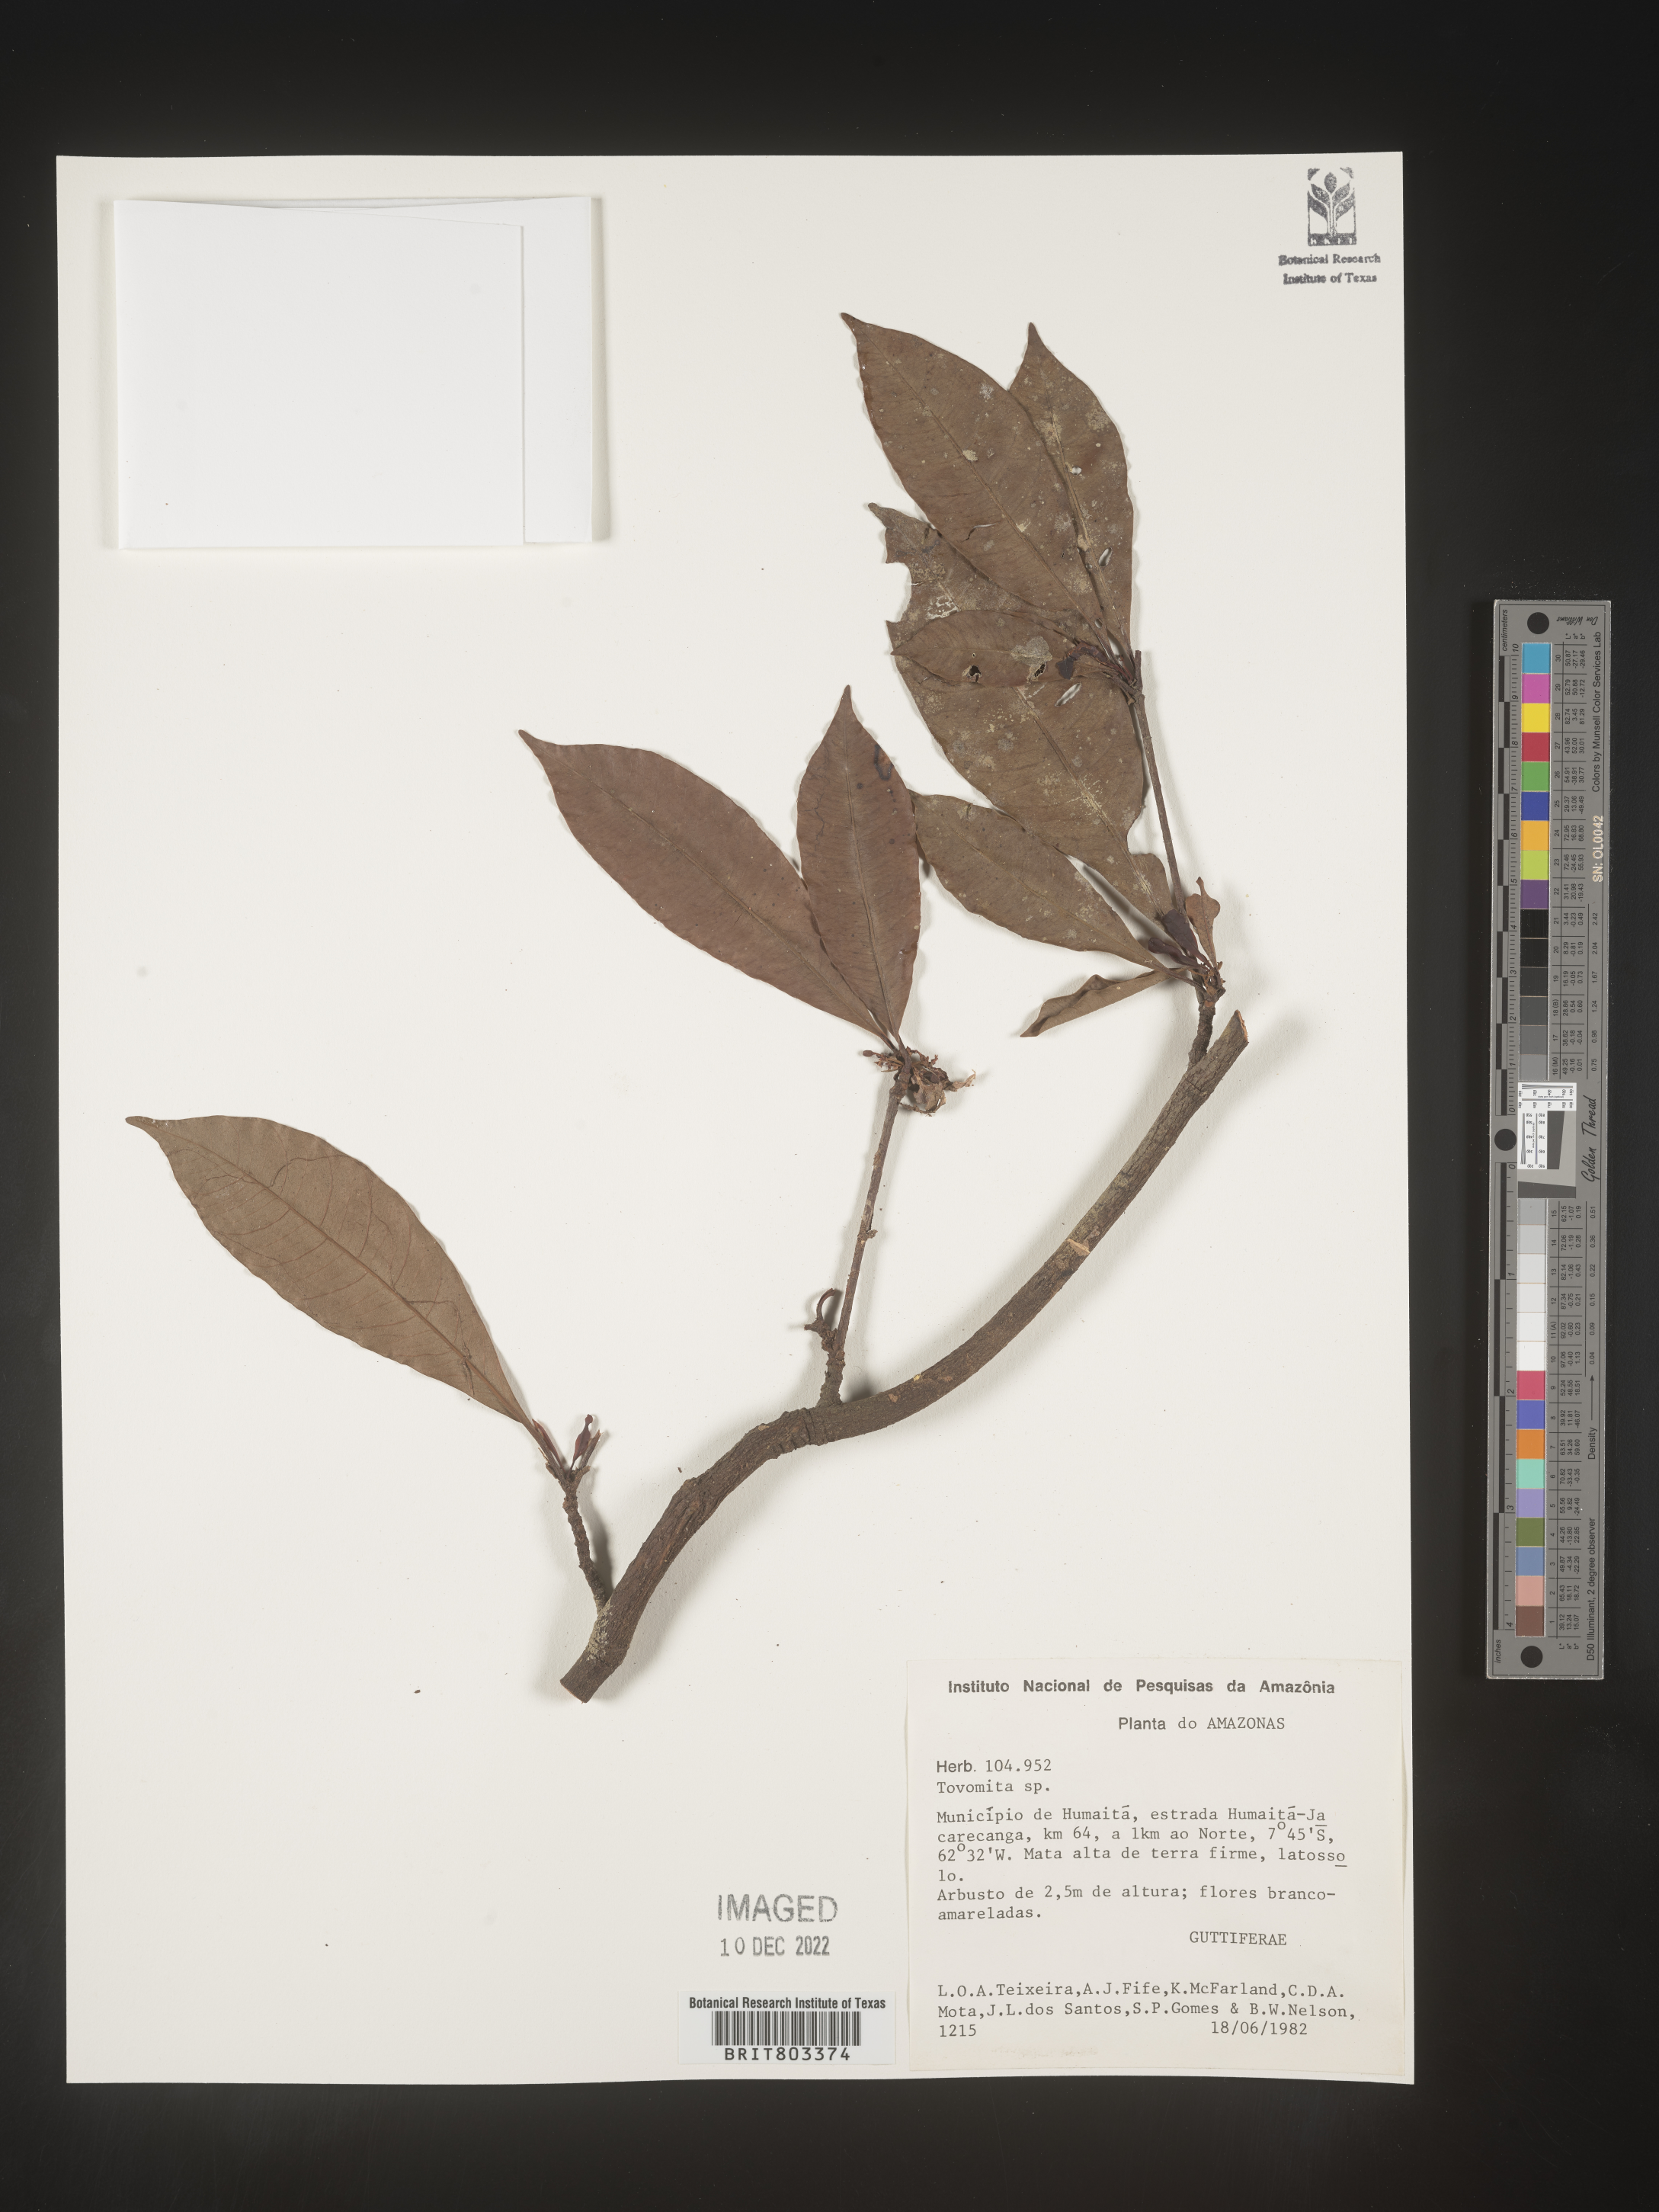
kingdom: Plantae
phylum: Tracheophyta
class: Magnoliopsida
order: Malpighiales
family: Clusiaceae
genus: Tovomita
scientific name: Tovomita
